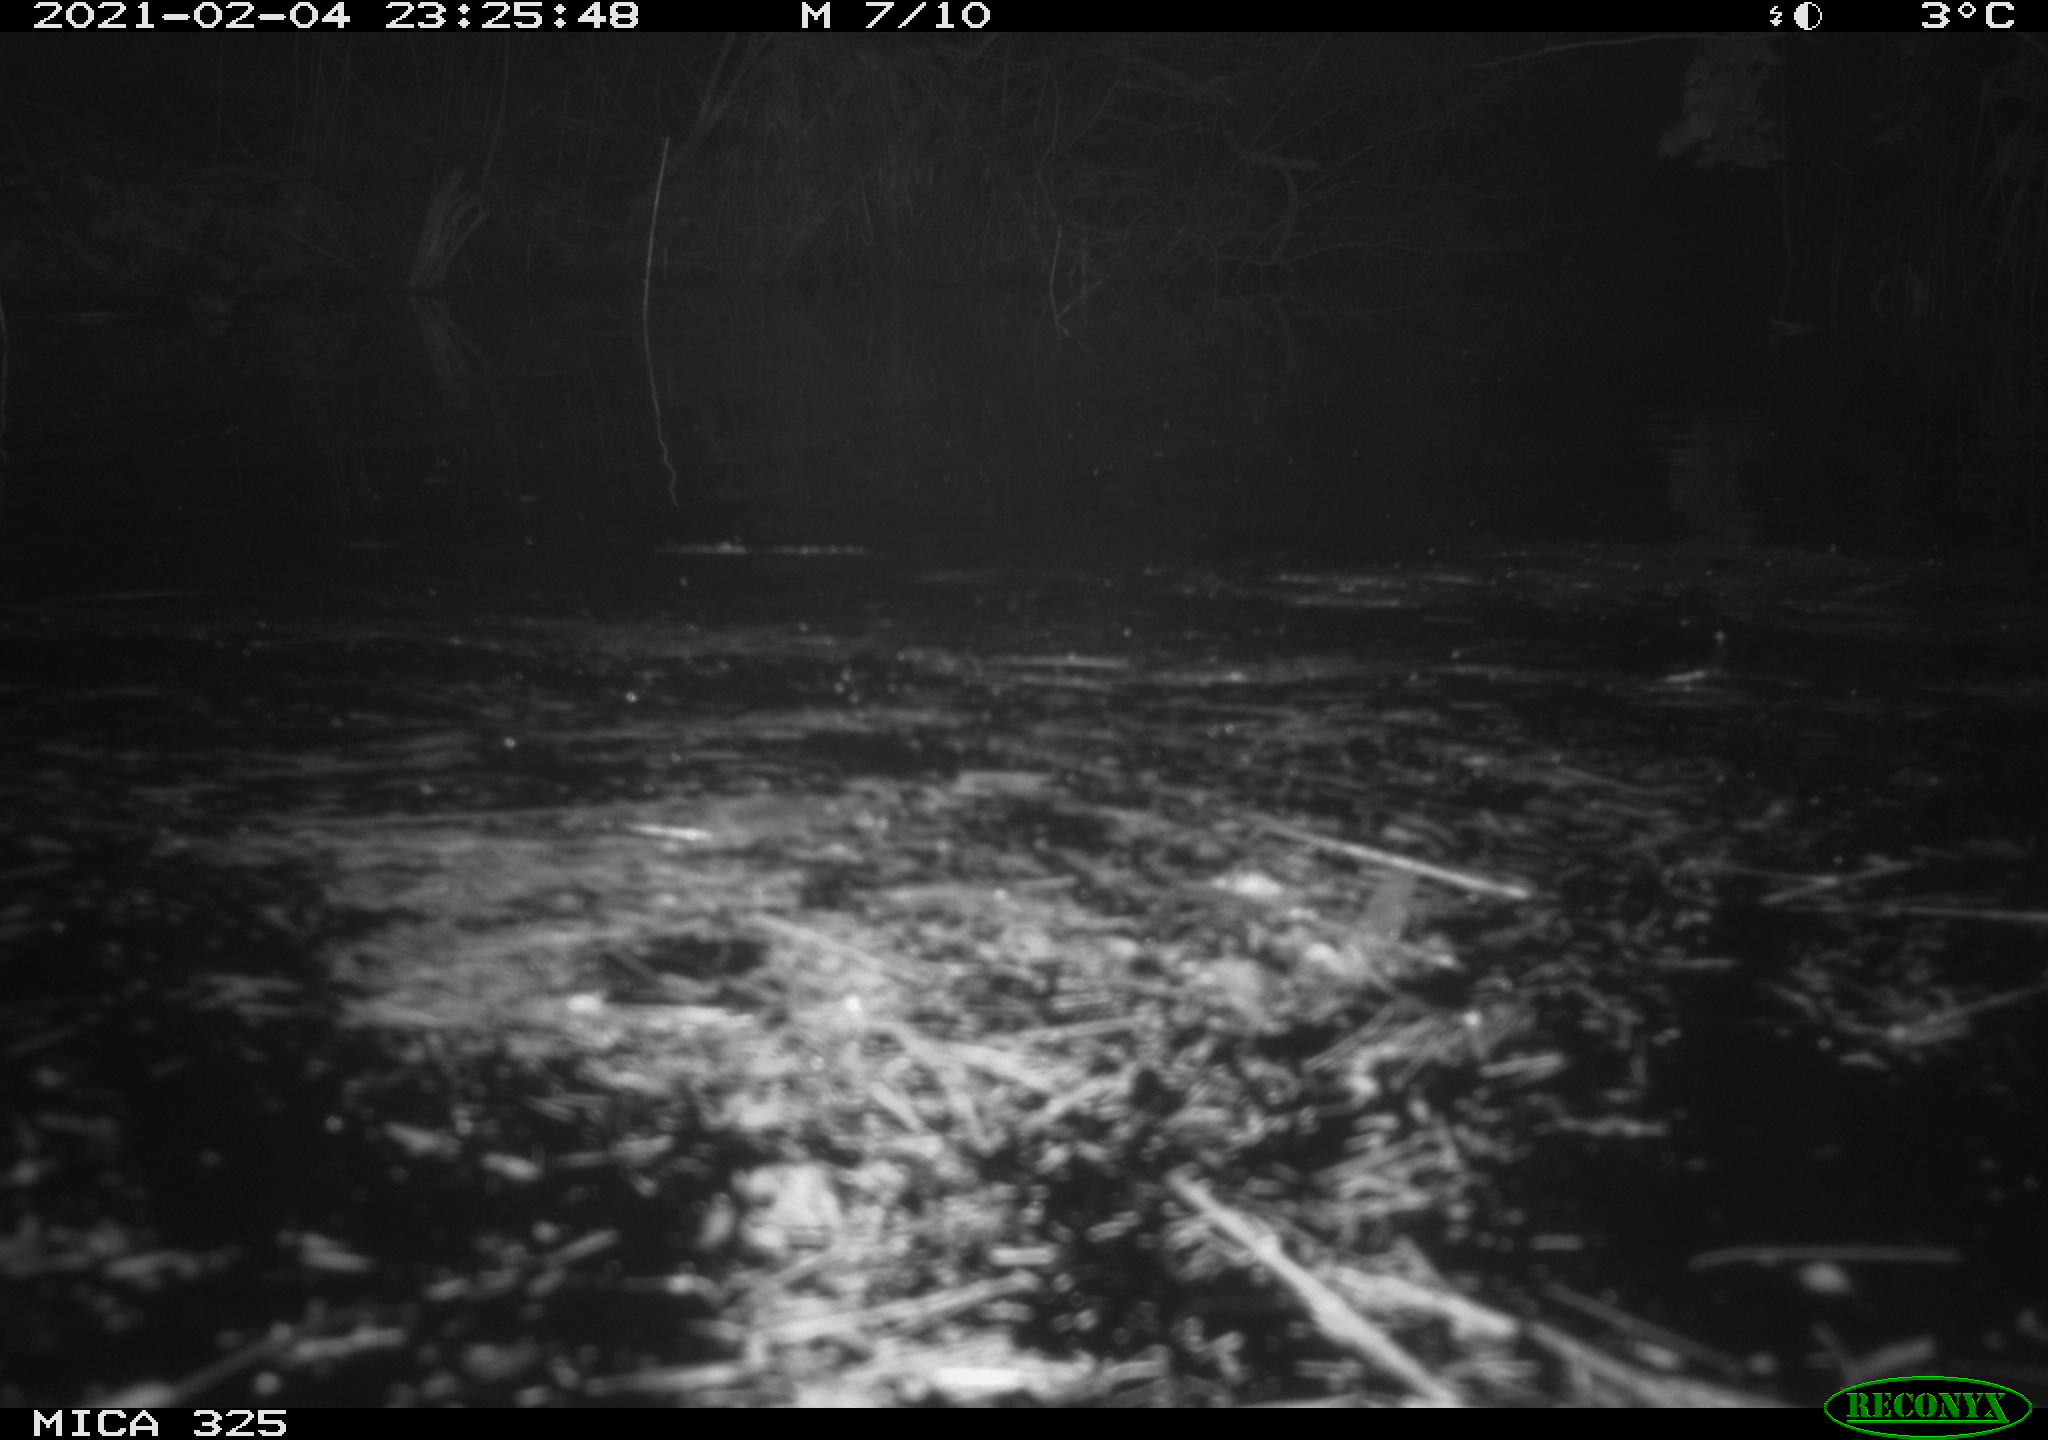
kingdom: Animalia
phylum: Chordata
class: Mammalia
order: Rodentia
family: Myocastoridae
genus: Myocastor
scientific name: Myocastor coypus
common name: Coypu
